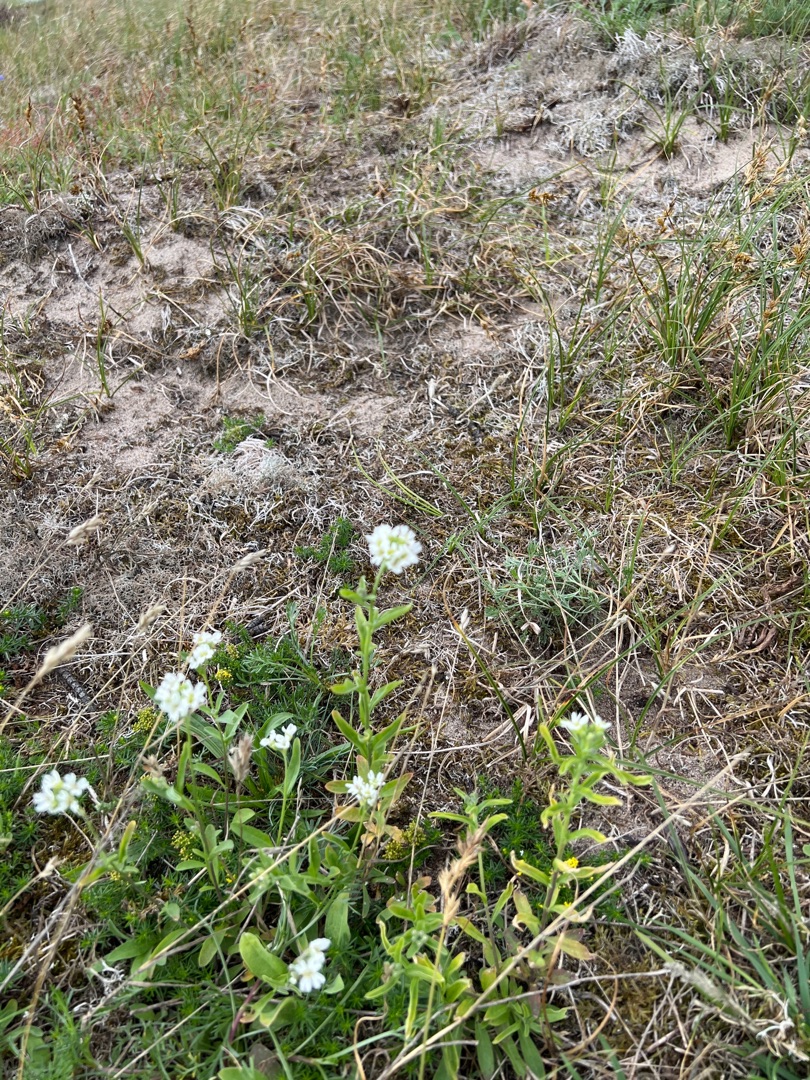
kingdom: Plantae
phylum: Tracheophyta
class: Magnoliopsida
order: Brassicales
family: Brassicaceae
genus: Berteroa
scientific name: Berteroa incana
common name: Kløvplade
